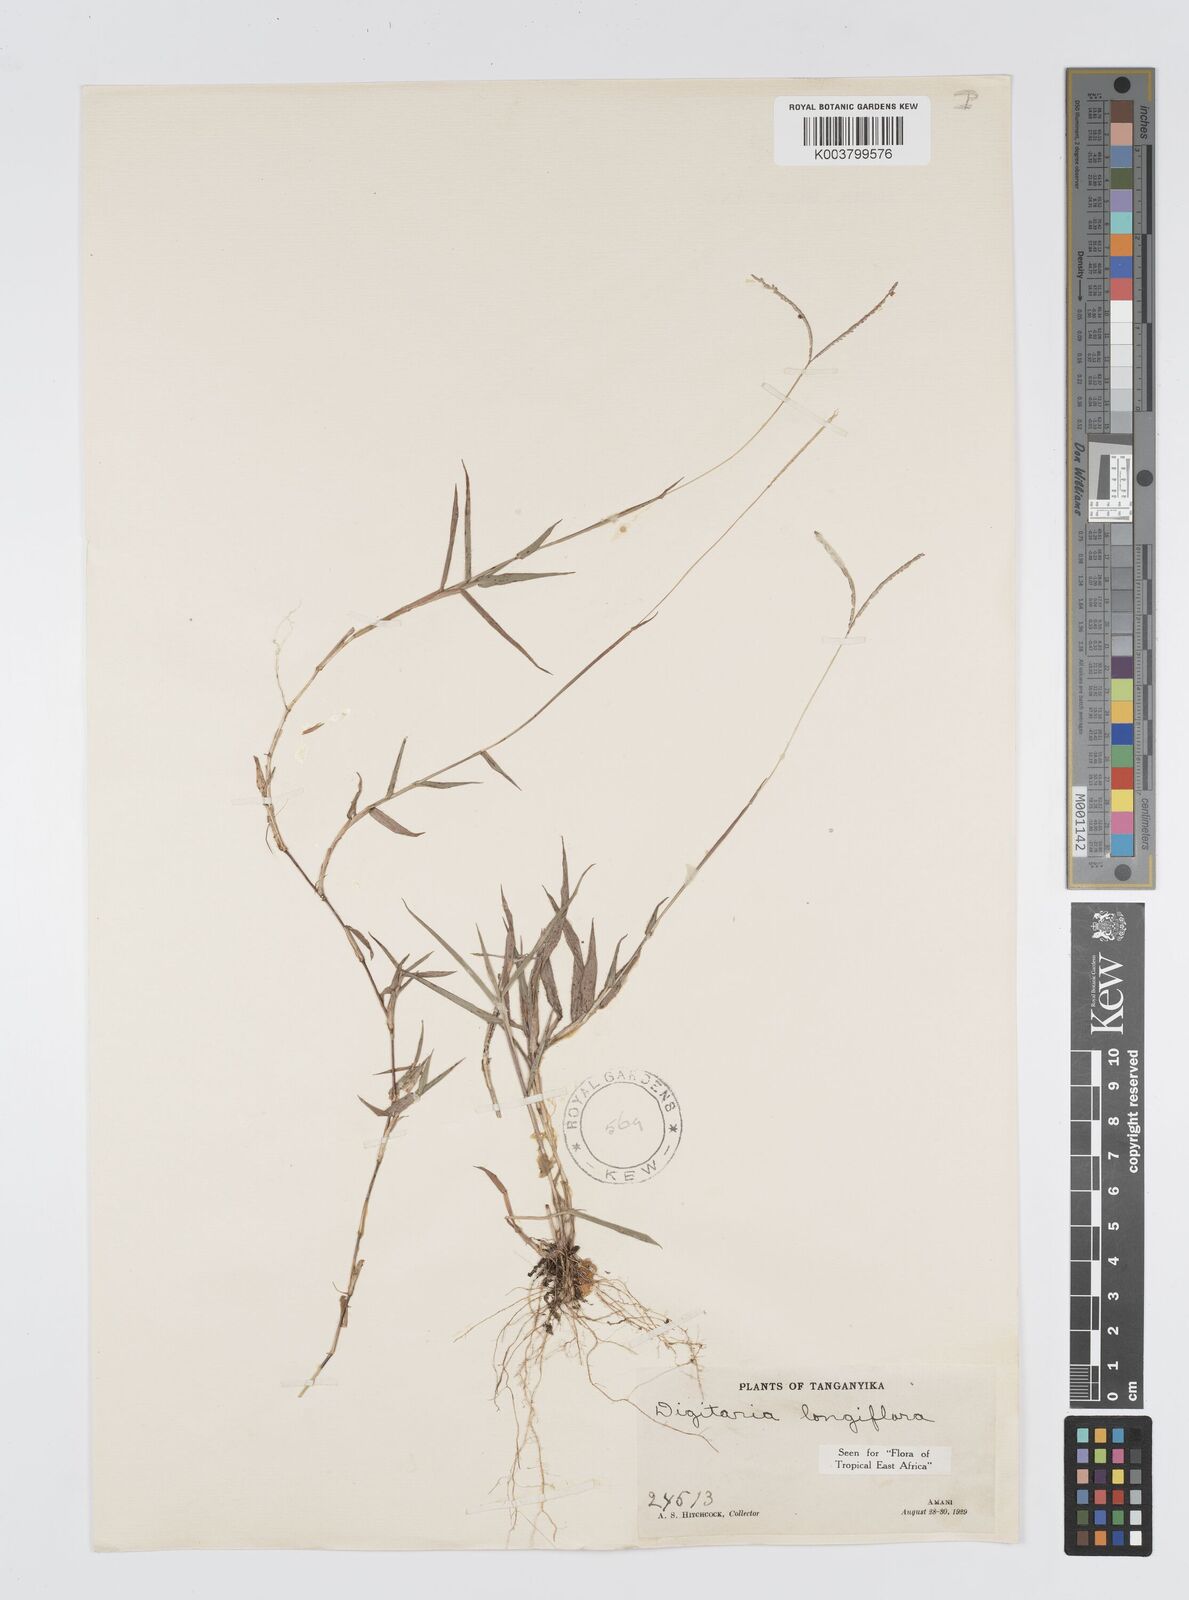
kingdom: Plantae
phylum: Tracheophyta
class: Liliopsida
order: Poales
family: Poaceae
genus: Digitaria
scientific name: Digitaria longiflora
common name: Wire crabgrass
